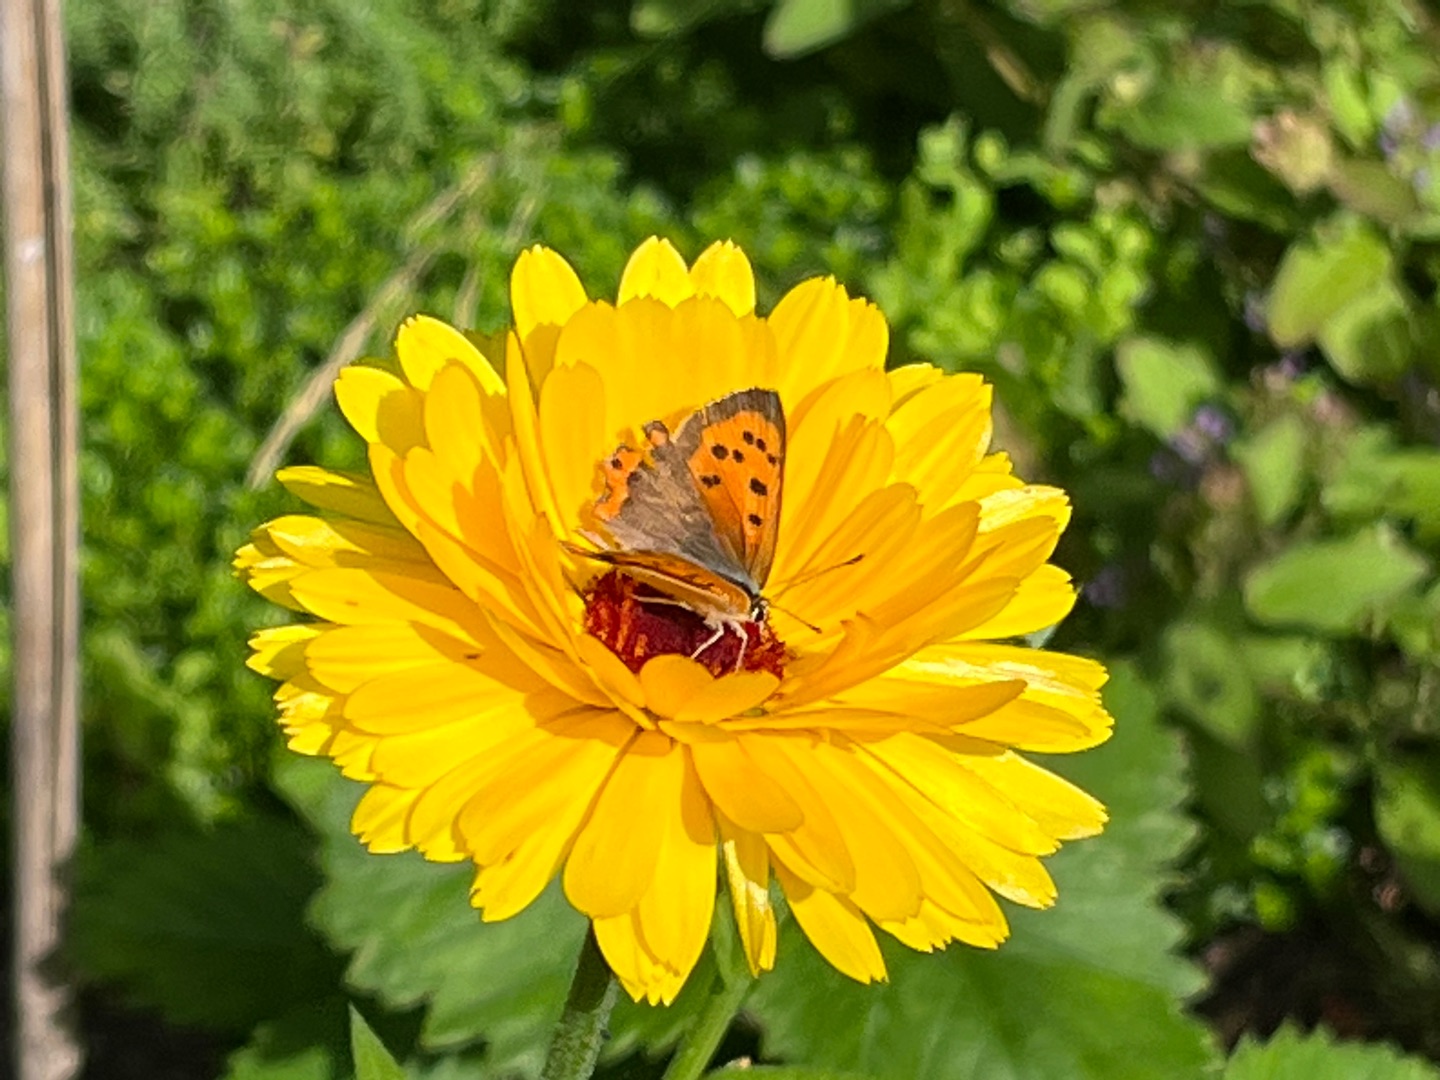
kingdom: Animalia
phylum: Arthropoda
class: Insecta
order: Lepidoptera
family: Lycaenidae
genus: Lycaena
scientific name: Lycaena phlaeas
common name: Lille ildfugl
